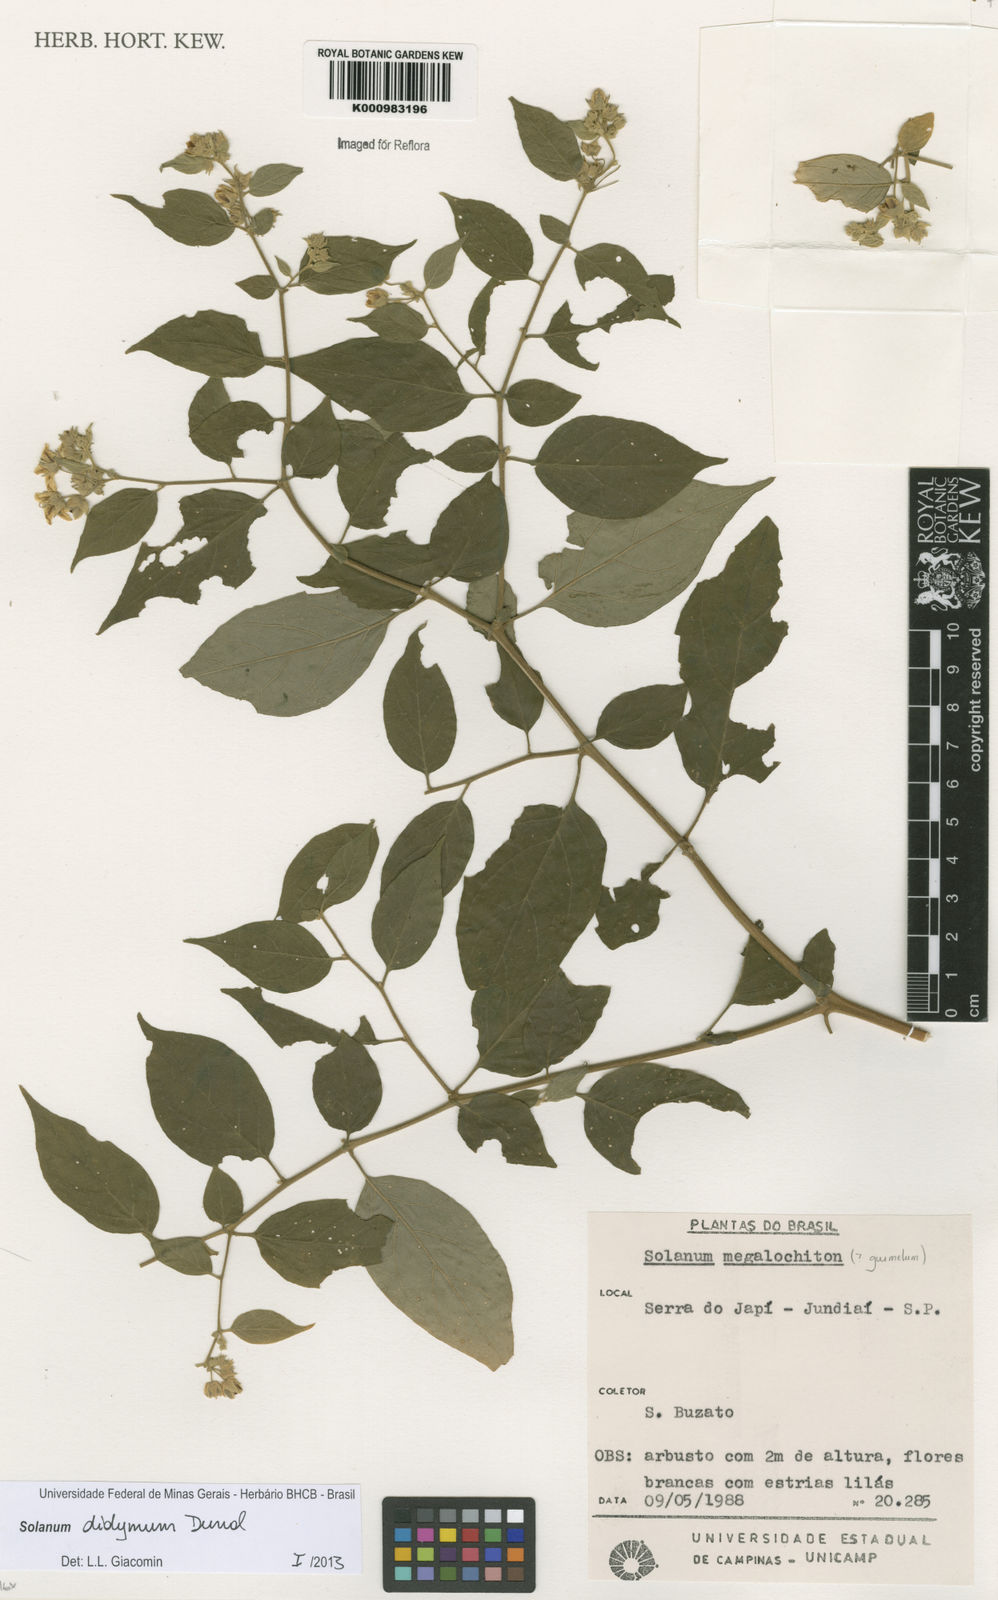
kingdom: Plantae
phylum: Tracheophyta
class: Magnoliopsida
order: Solanales
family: Solanaceae
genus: Solanum
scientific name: Solanum didymum
